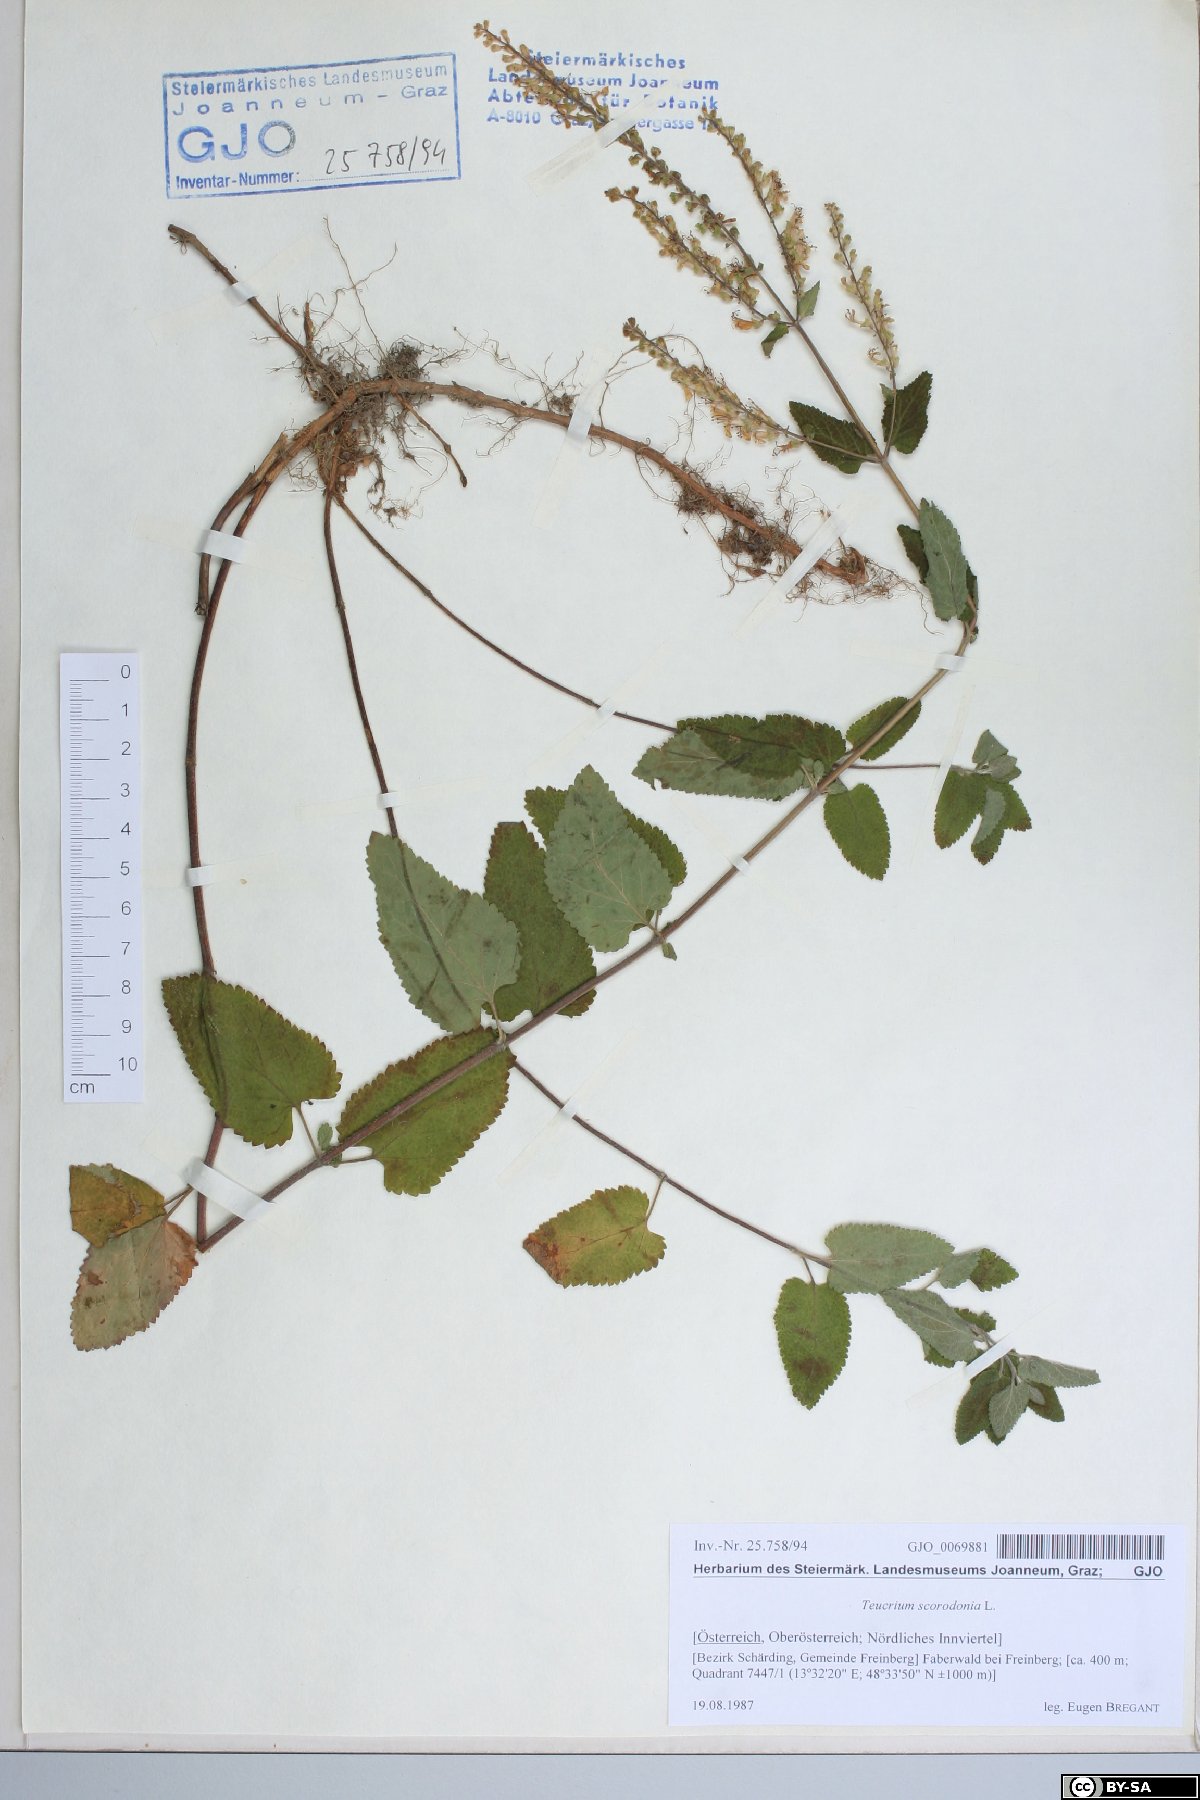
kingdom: Plantae
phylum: Tracheophyta
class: Magnoliopsida
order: Lamiales
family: Lamiaceae
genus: Teucrium
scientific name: Teucrium scorodonia
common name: Woodland germander
